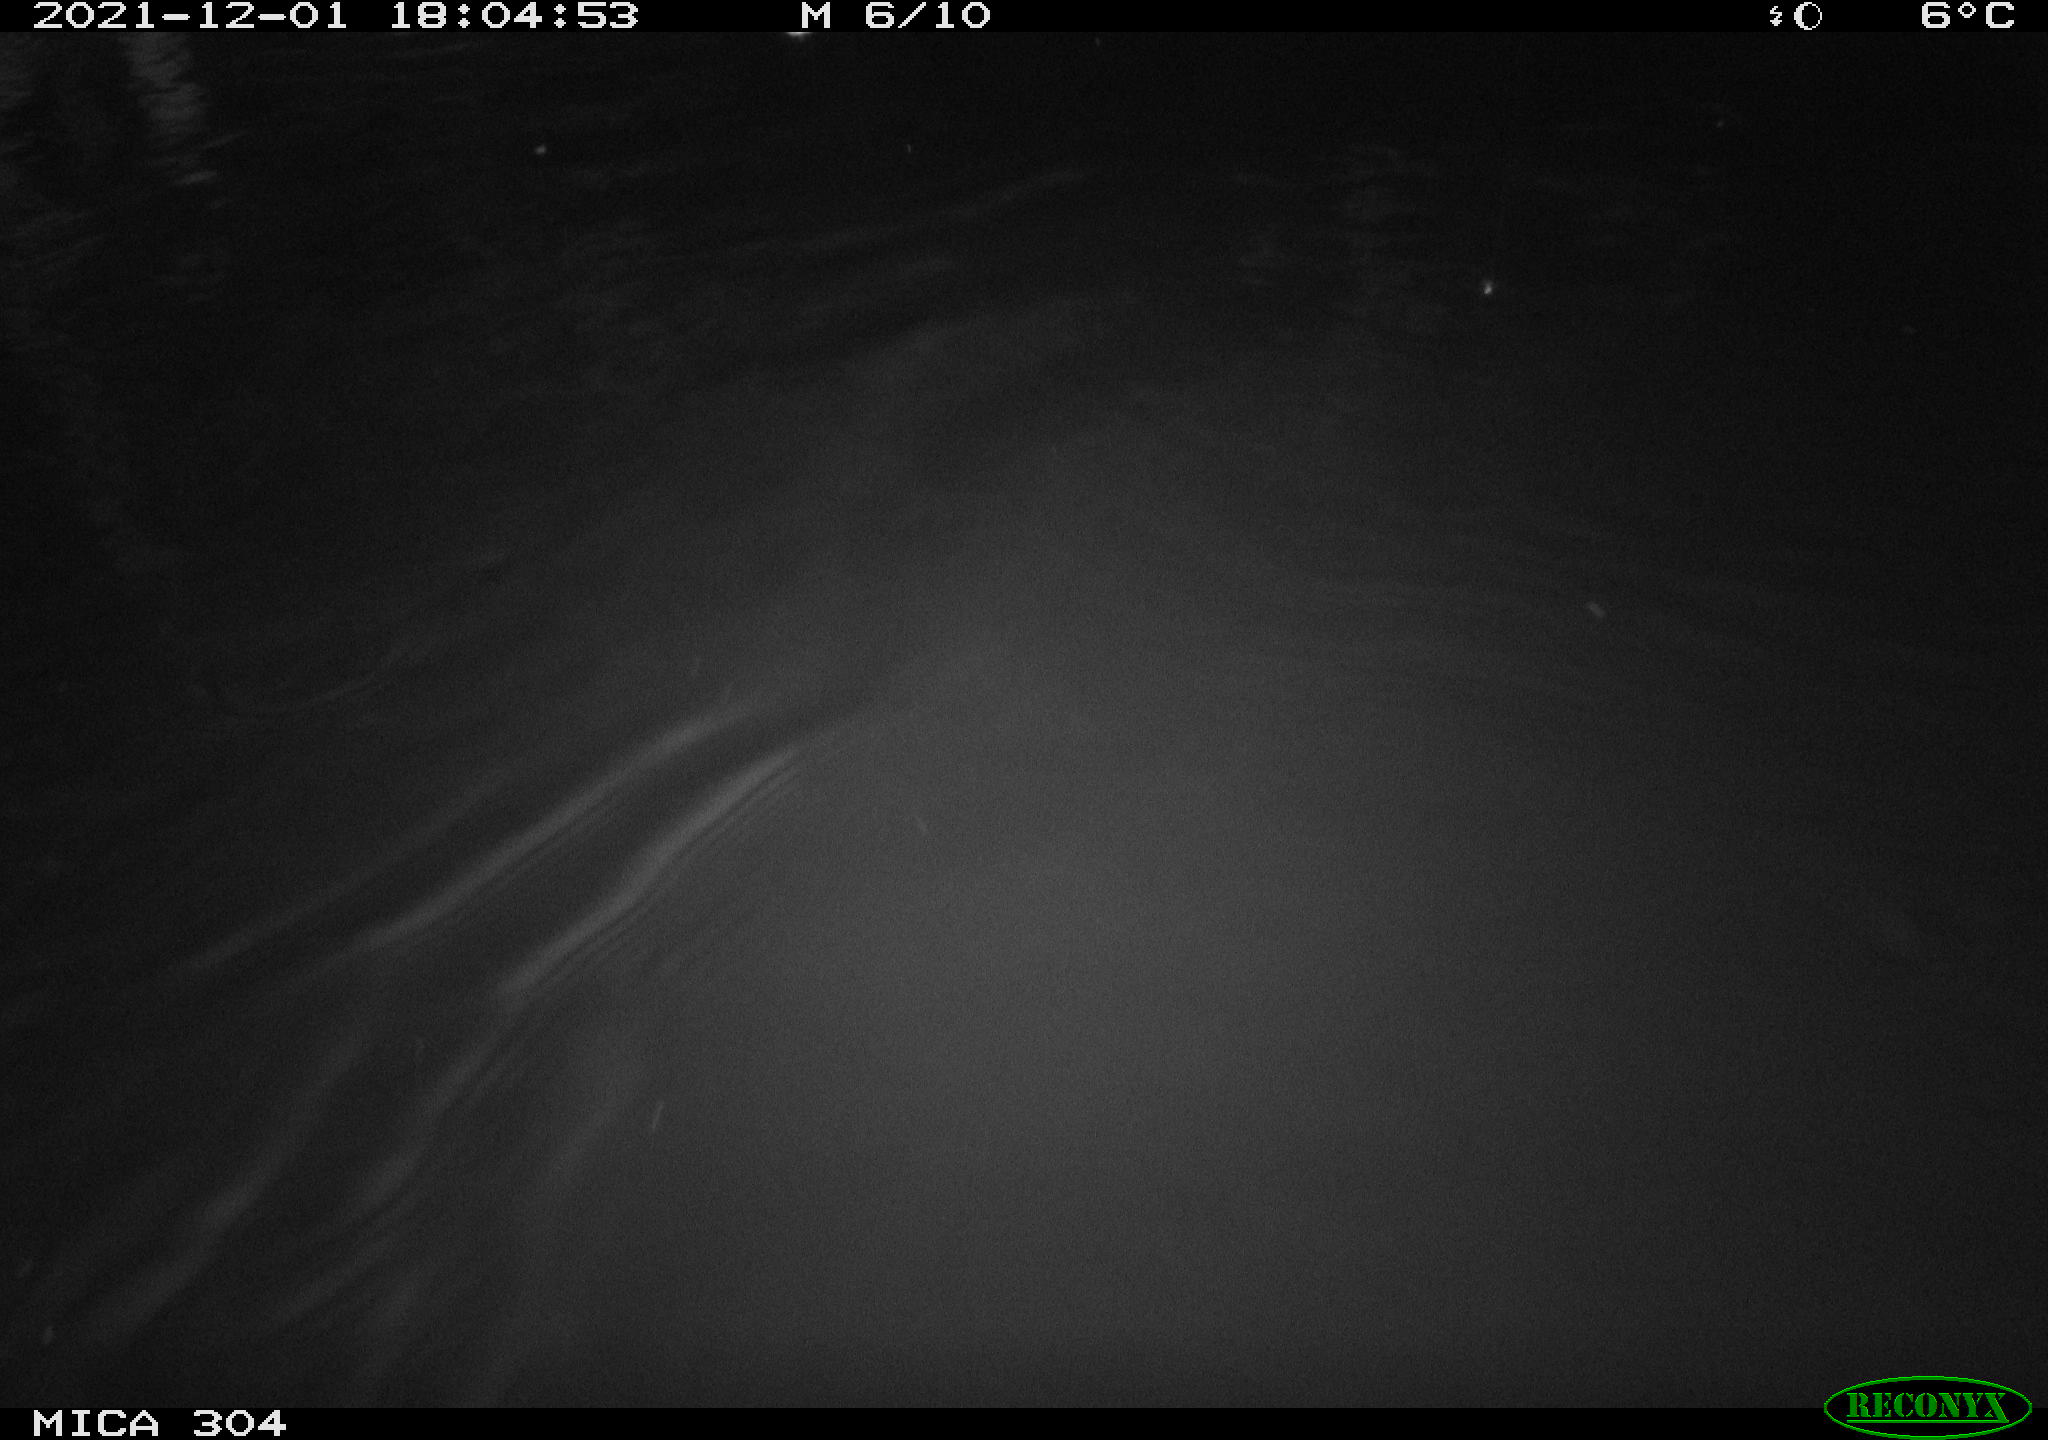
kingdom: Animalia
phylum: Chordata
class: Mammalia
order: Rodentia
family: Muridae
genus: Rattus
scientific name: Rattus norvegicus
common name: Brown rat
